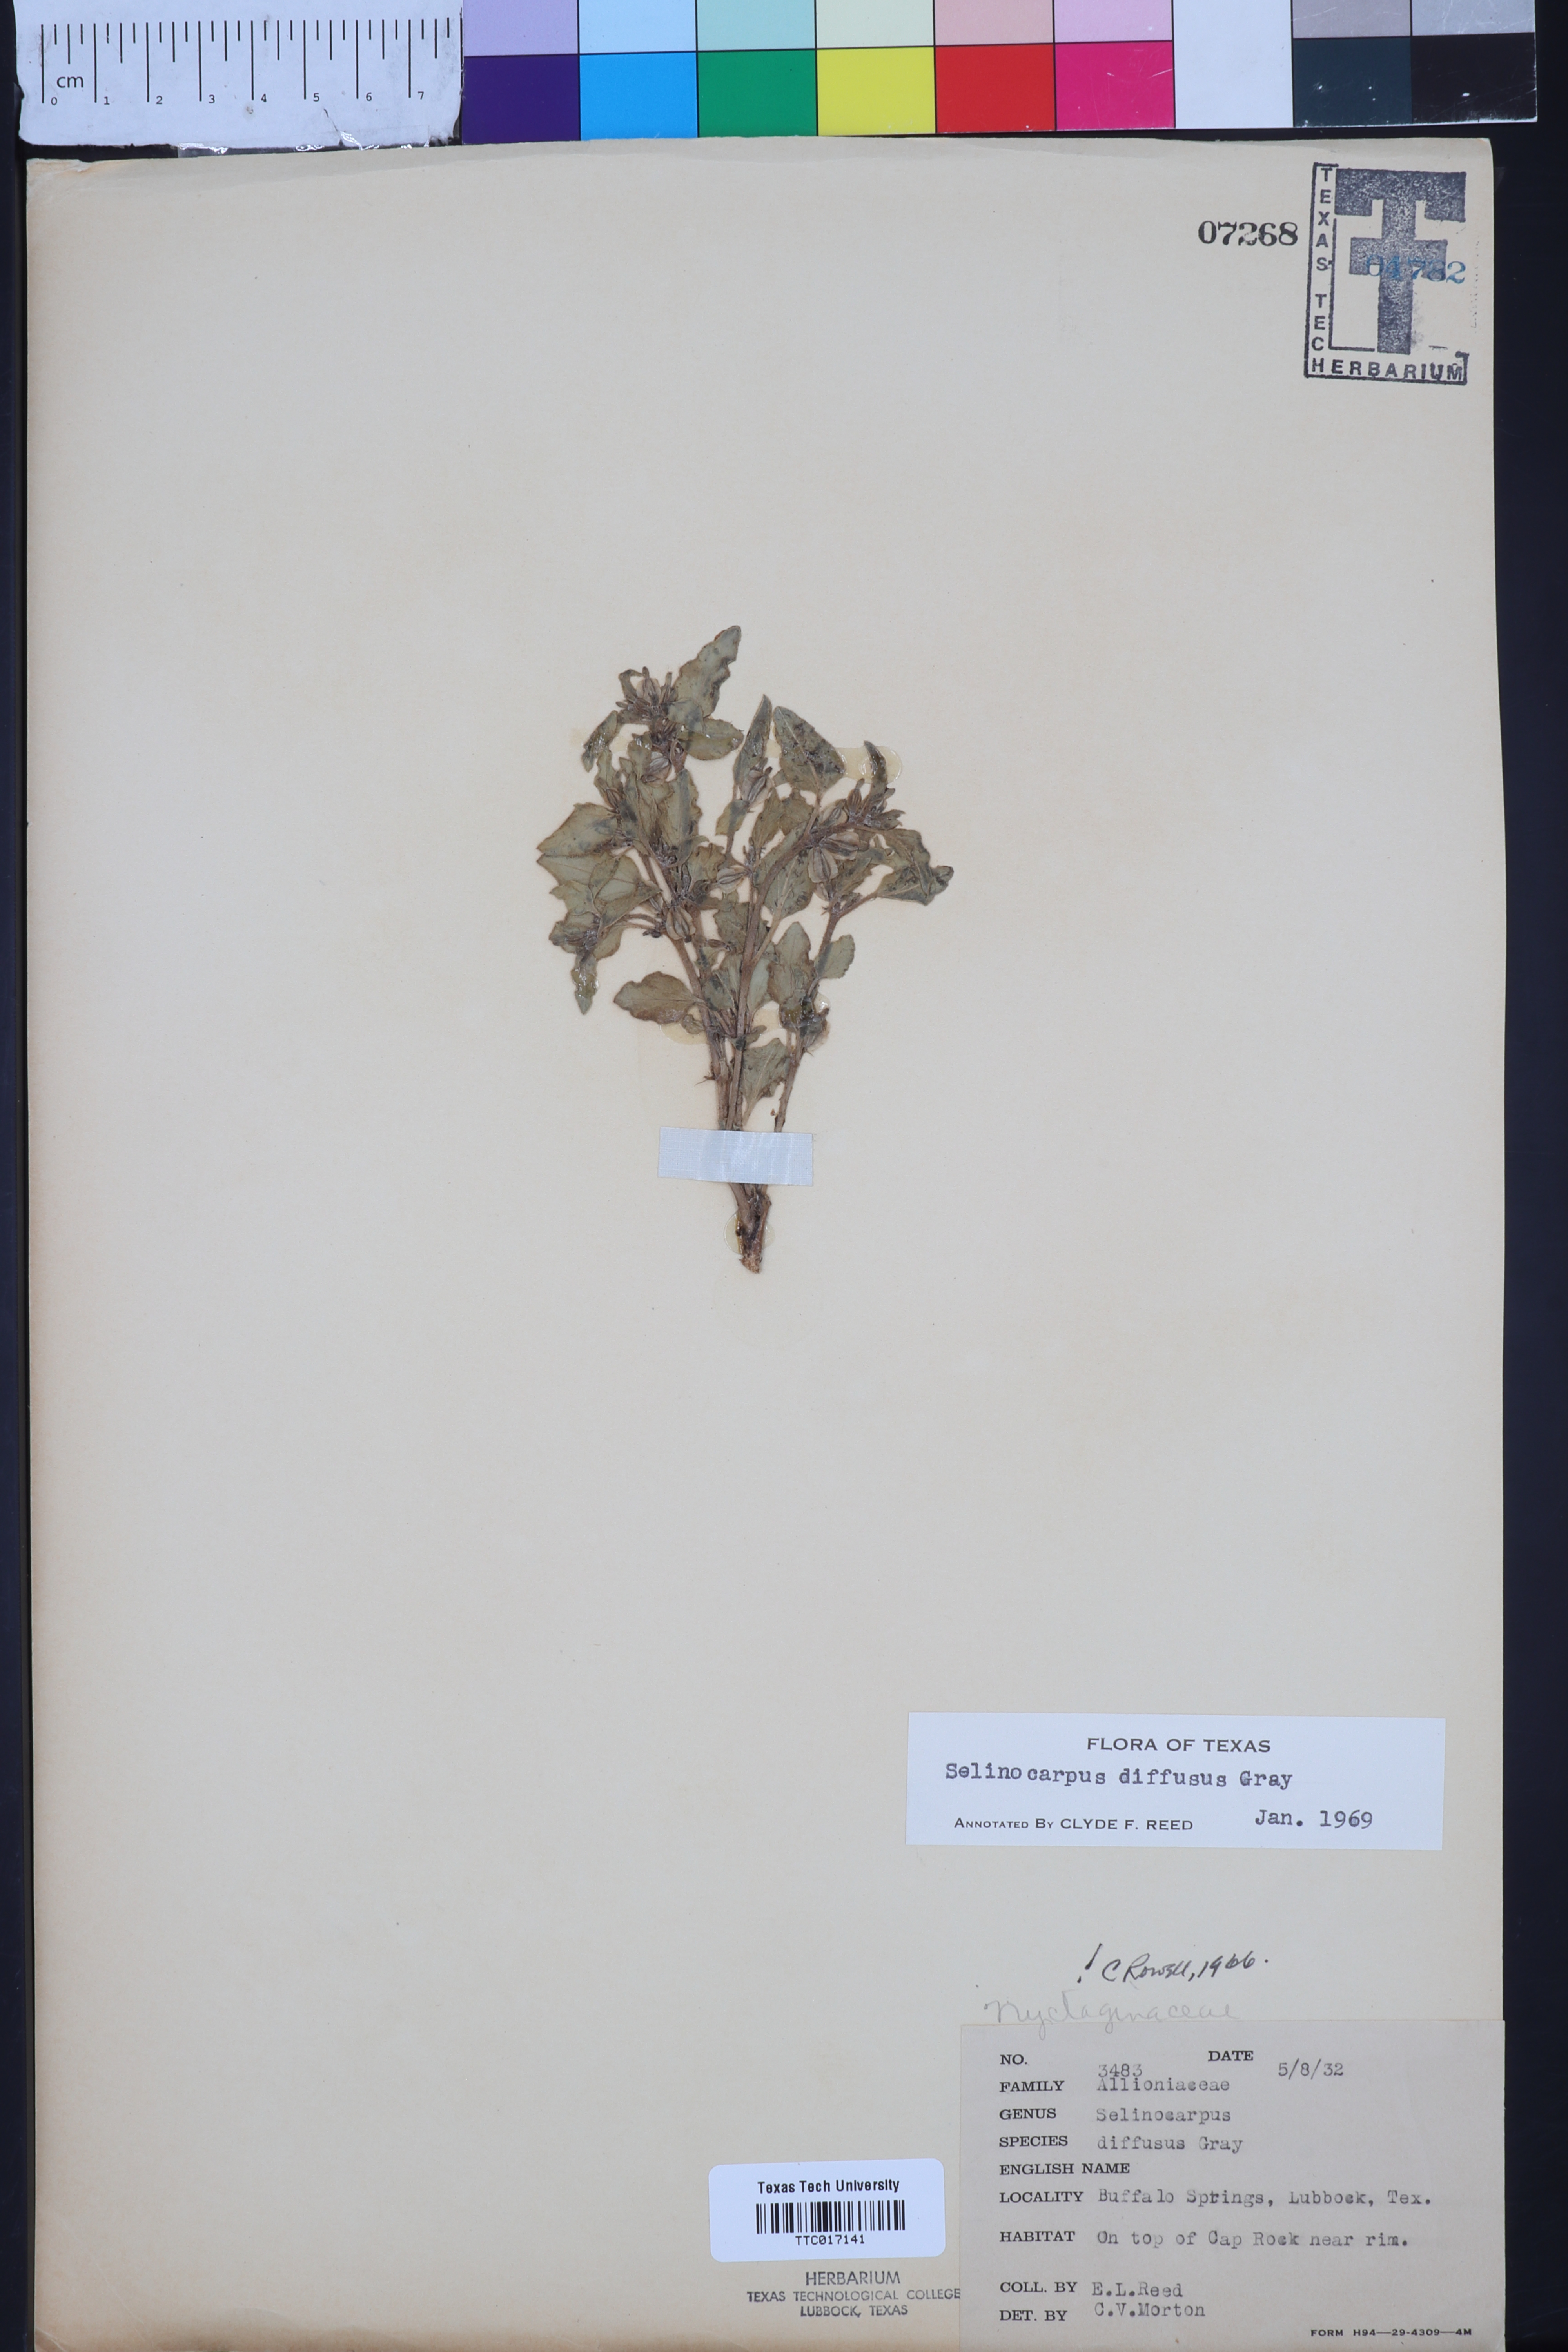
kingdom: Plantae
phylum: Tracheophyta
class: Magnoliopsida
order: Caryophyllales
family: Nyctaginaceae
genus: Acleisanthes
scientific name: Acleisanthes diffusa
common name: Spreading moonpod
